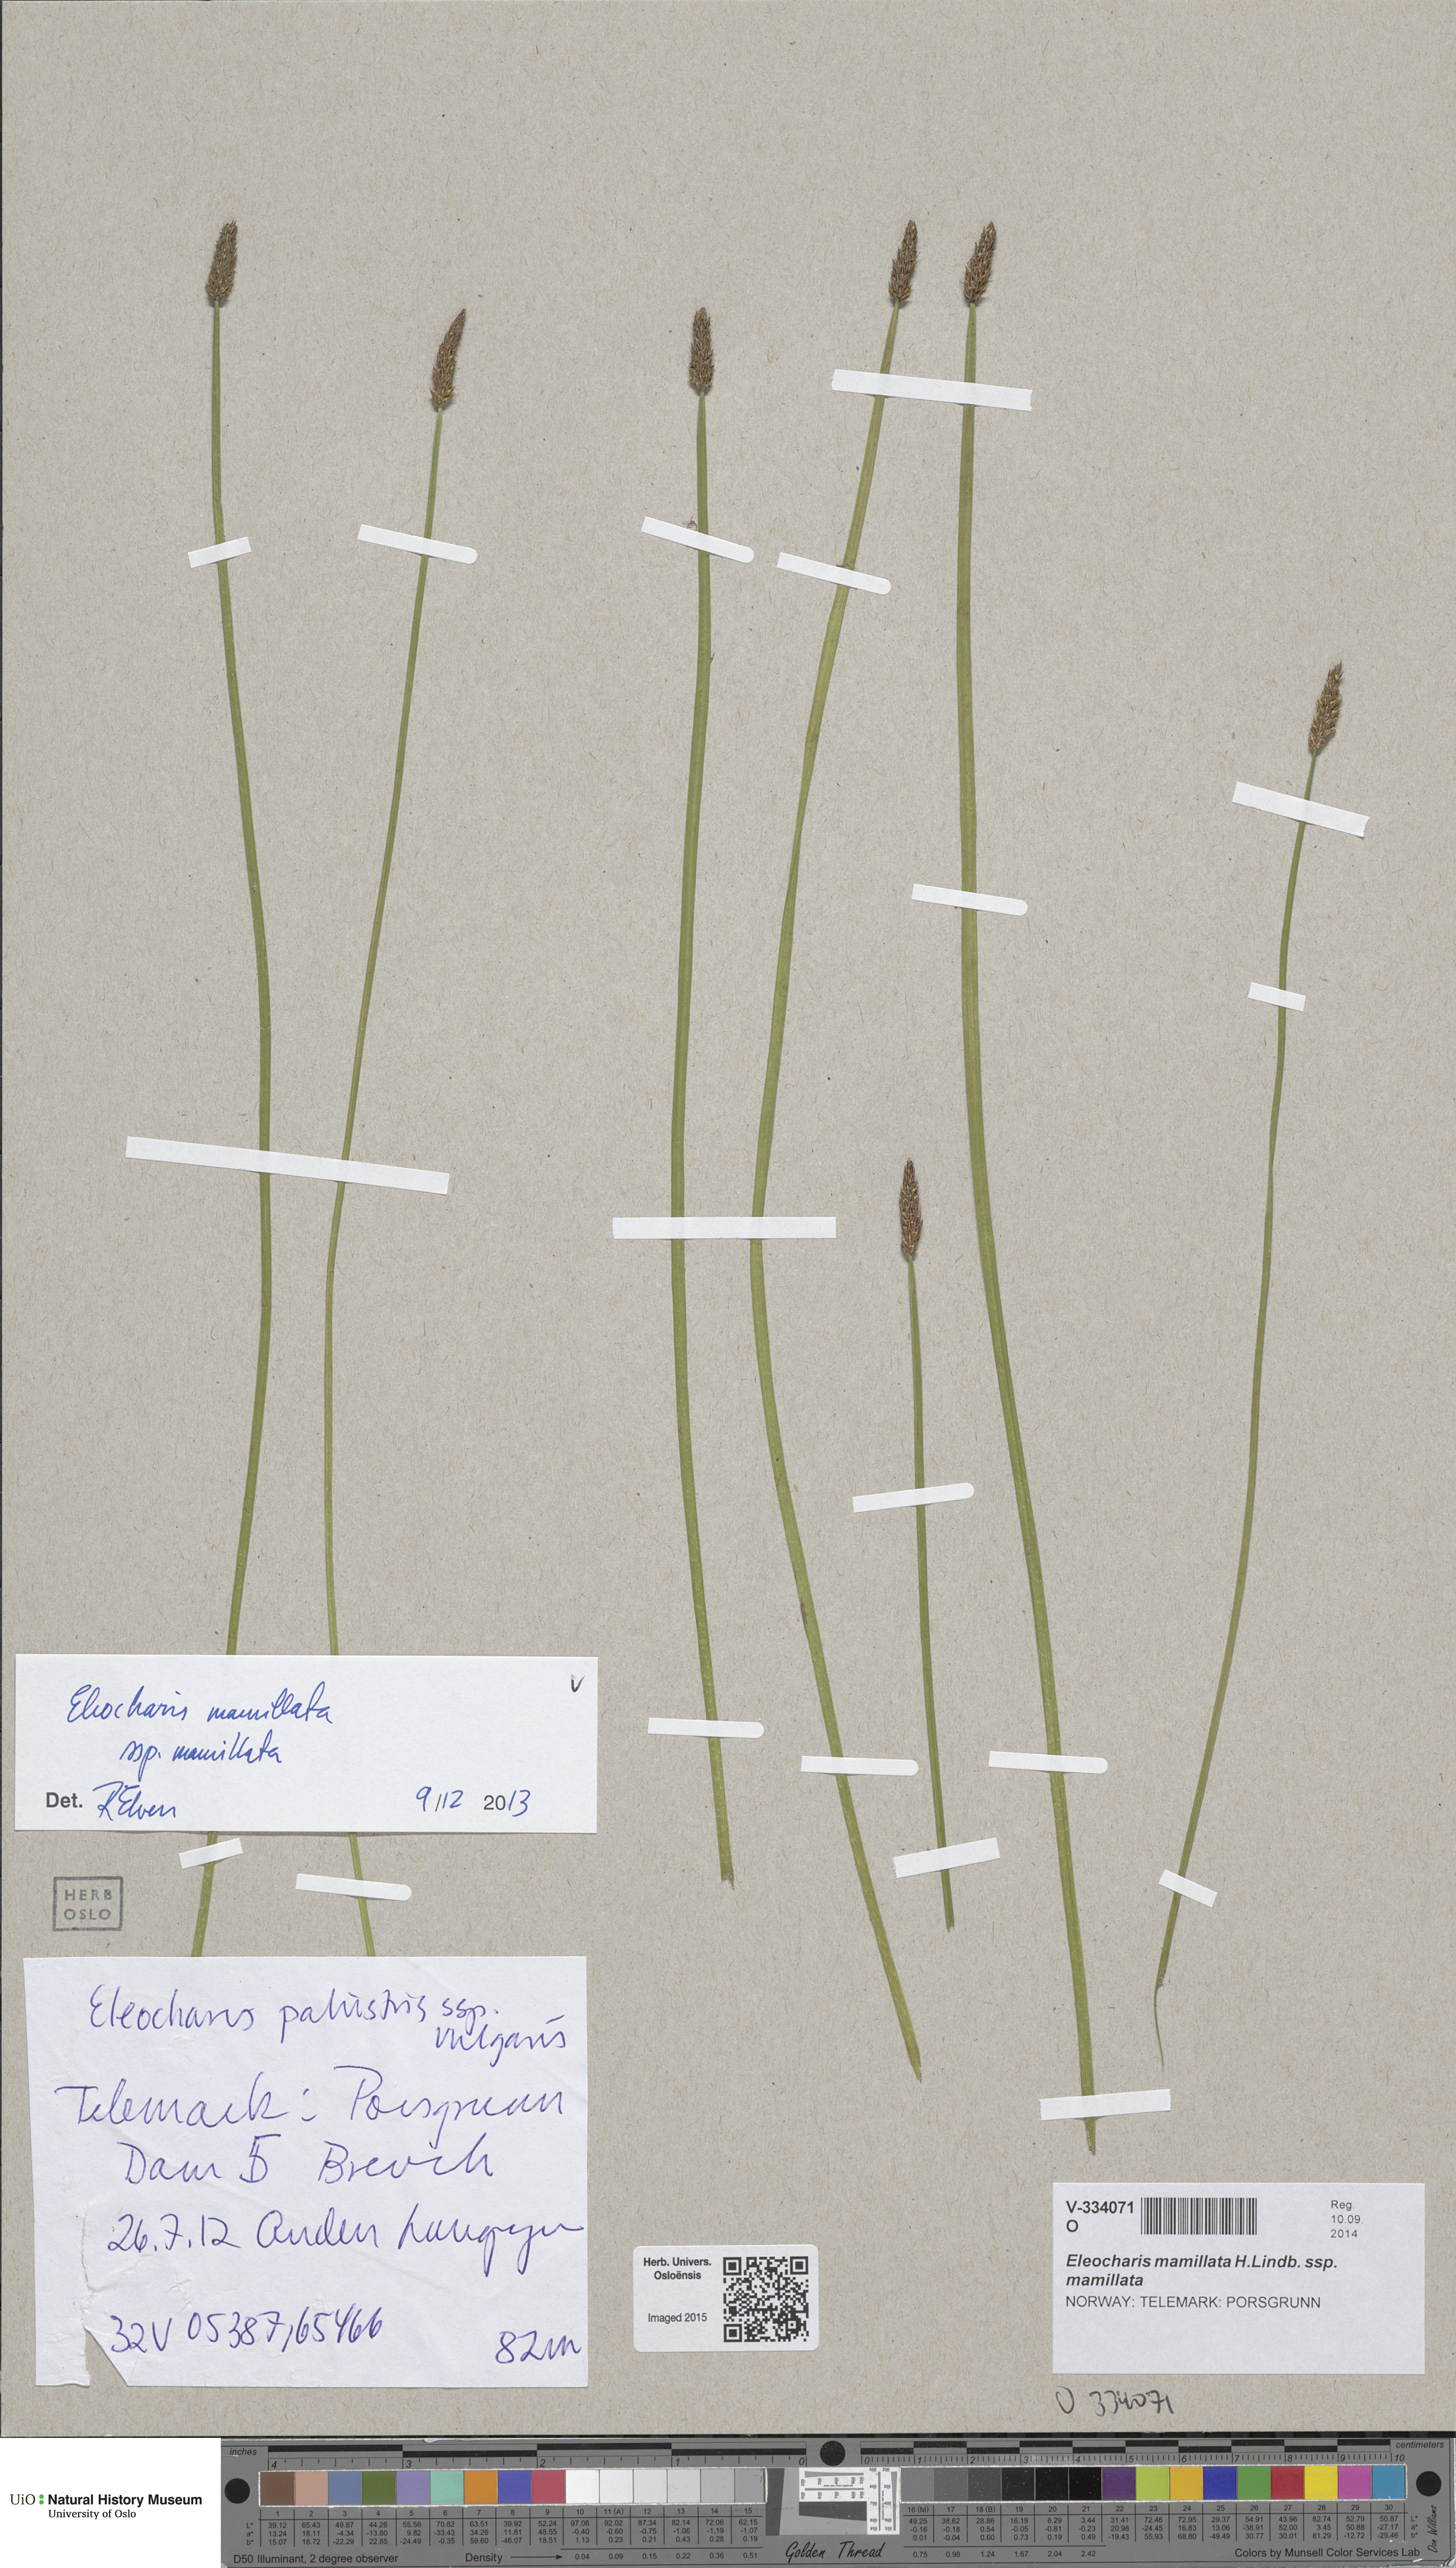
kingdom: Plantae
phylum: Tracheophyta
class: Liliopsida
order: Poales
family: Cyperaceae
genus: Eleocharis
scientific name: Eleocharis mamillata
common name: Northern spike-rush
